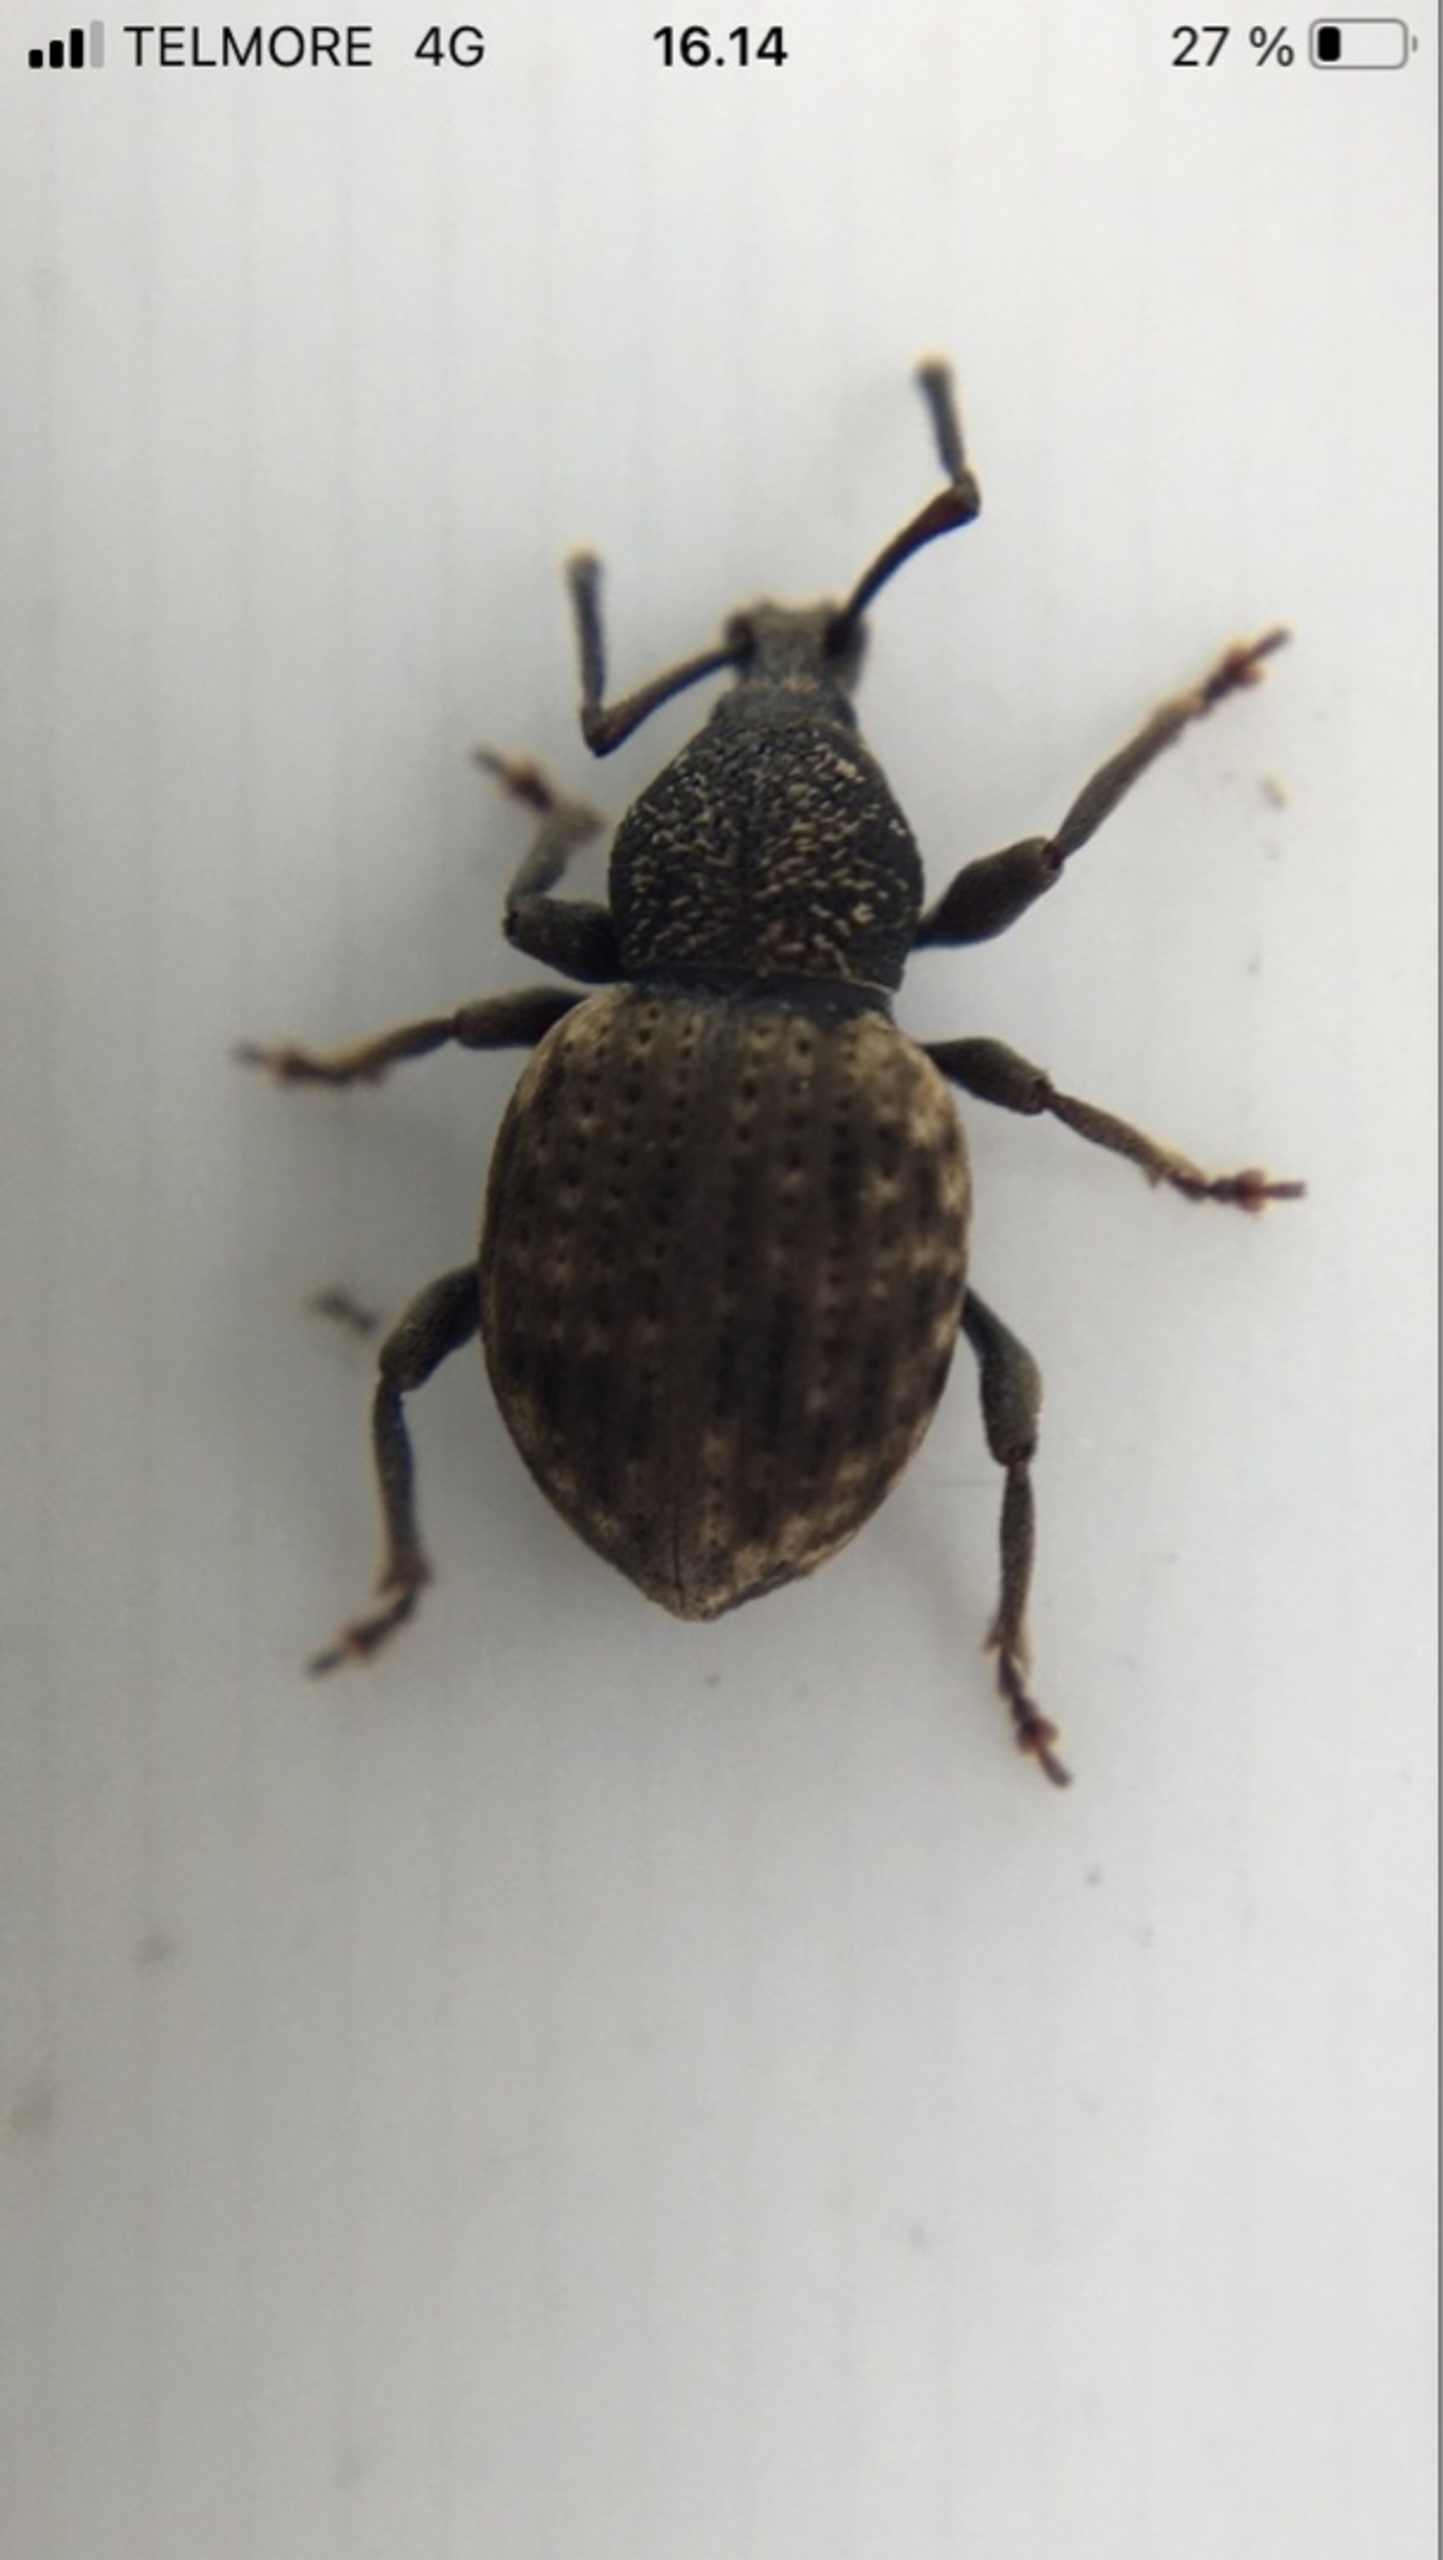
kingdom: Animalia
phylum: Arthropoda
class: Insecta
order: Coleoptera
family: Curculionidae
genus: Otiorhynchus
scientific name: Otiorhynchus raucus
